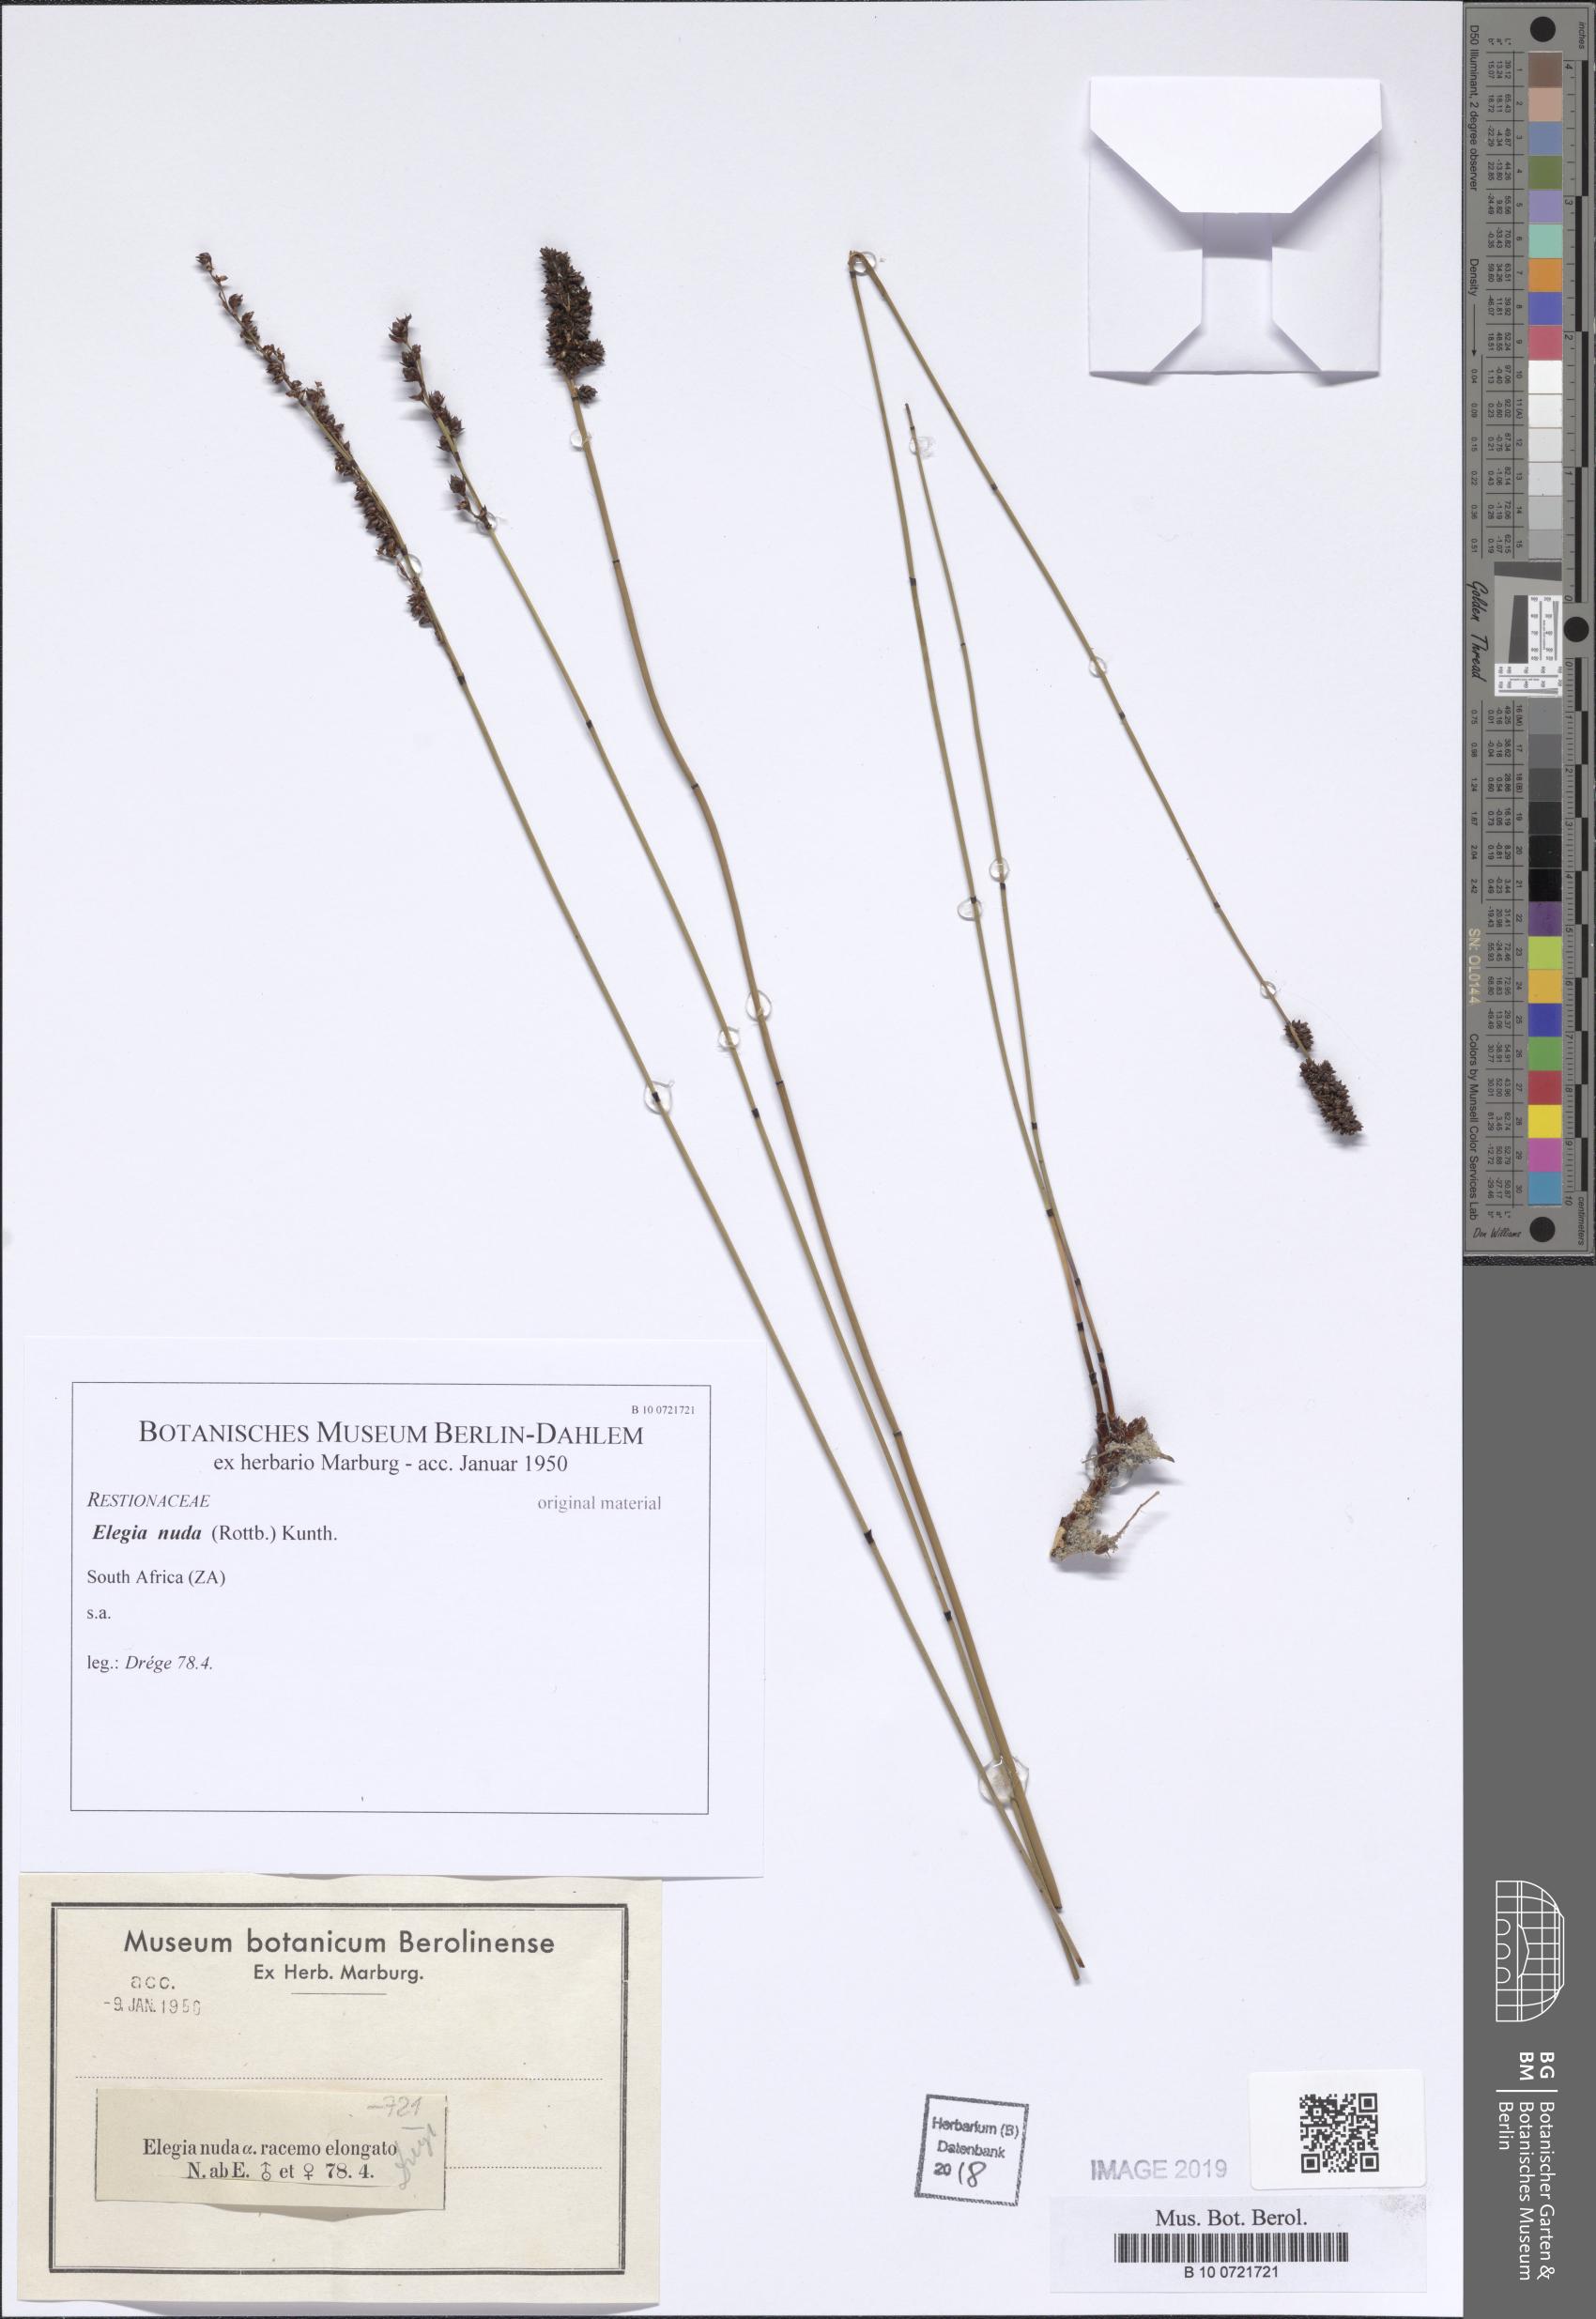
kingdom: Plantae
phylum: Tracheophyta
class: Liliopsida
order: Poales
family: Restionaceae
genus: Elegia
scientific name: Elegia nuda
